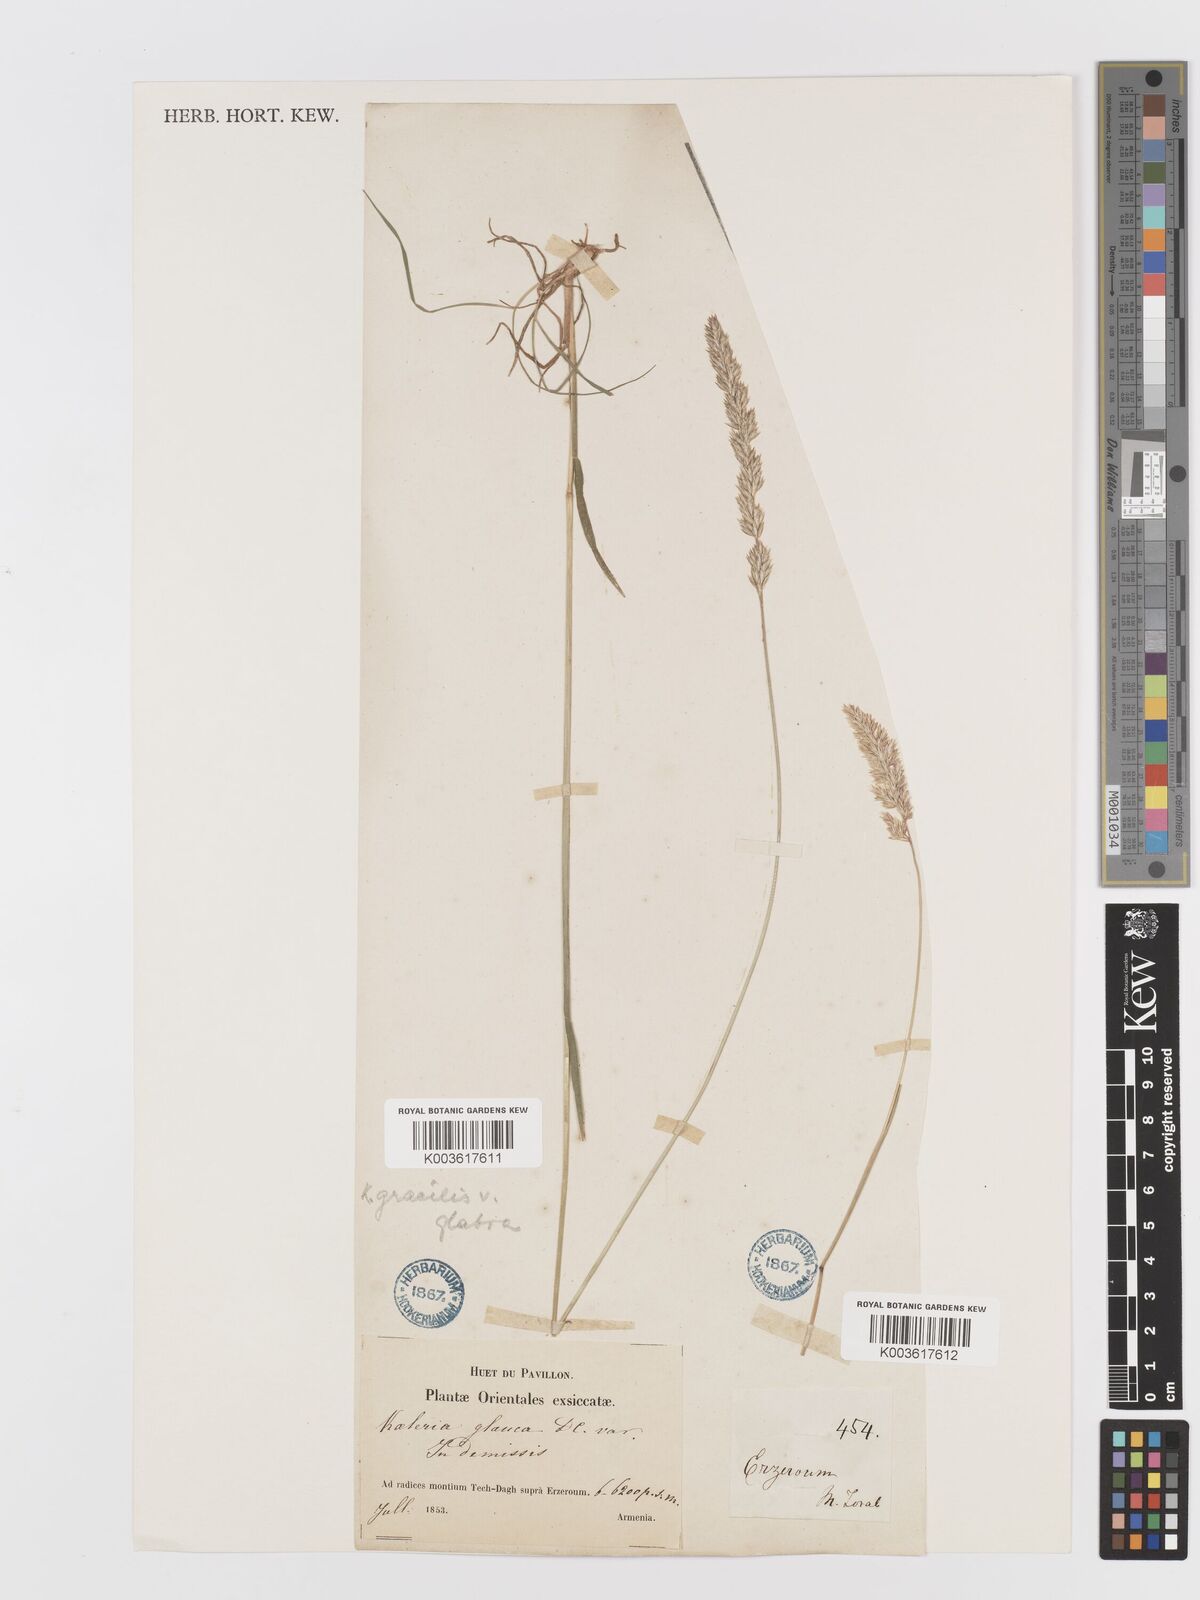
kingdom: Plantae
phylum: Tracheophyta
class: Liliopsida
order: Poales
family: Poaceae
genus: Koeleria
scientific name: Koeleria macrantha
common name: Crested hair-grass
